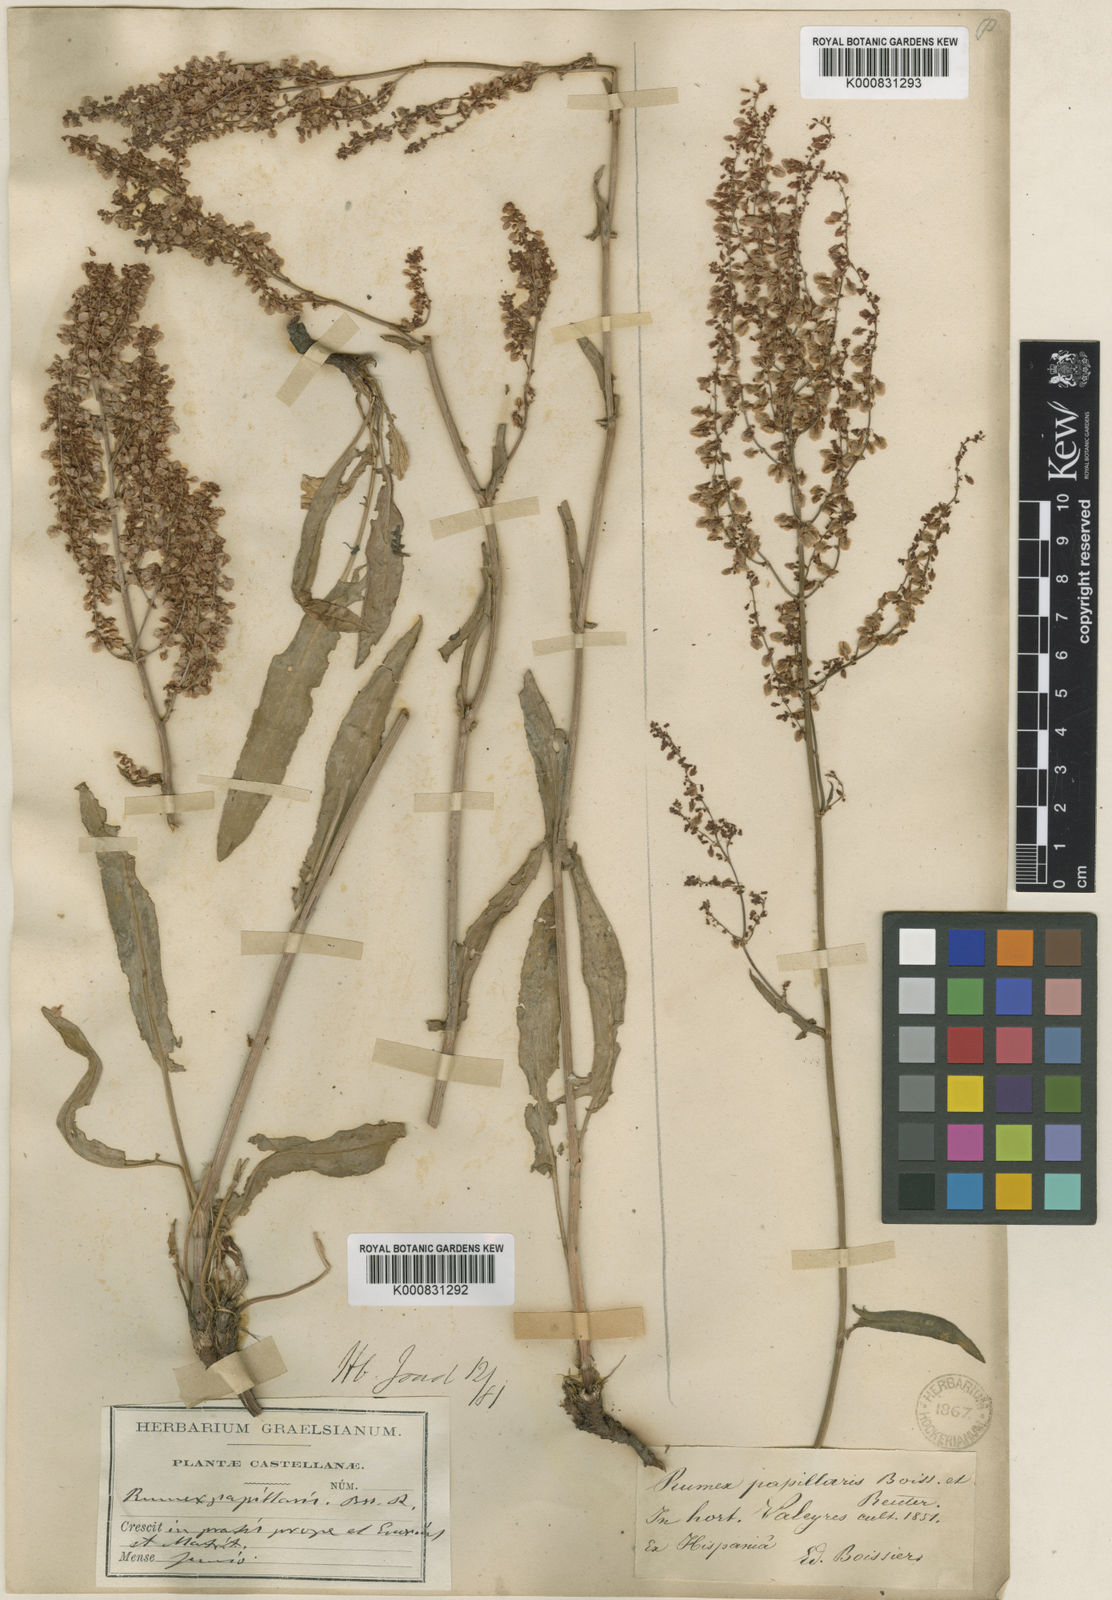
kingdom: Plantae
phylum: Tracheophyta
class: Magnoliopsida
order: Caryophyllales
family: Polygonaceae
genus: Rumex
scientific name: Rumex papillaris
